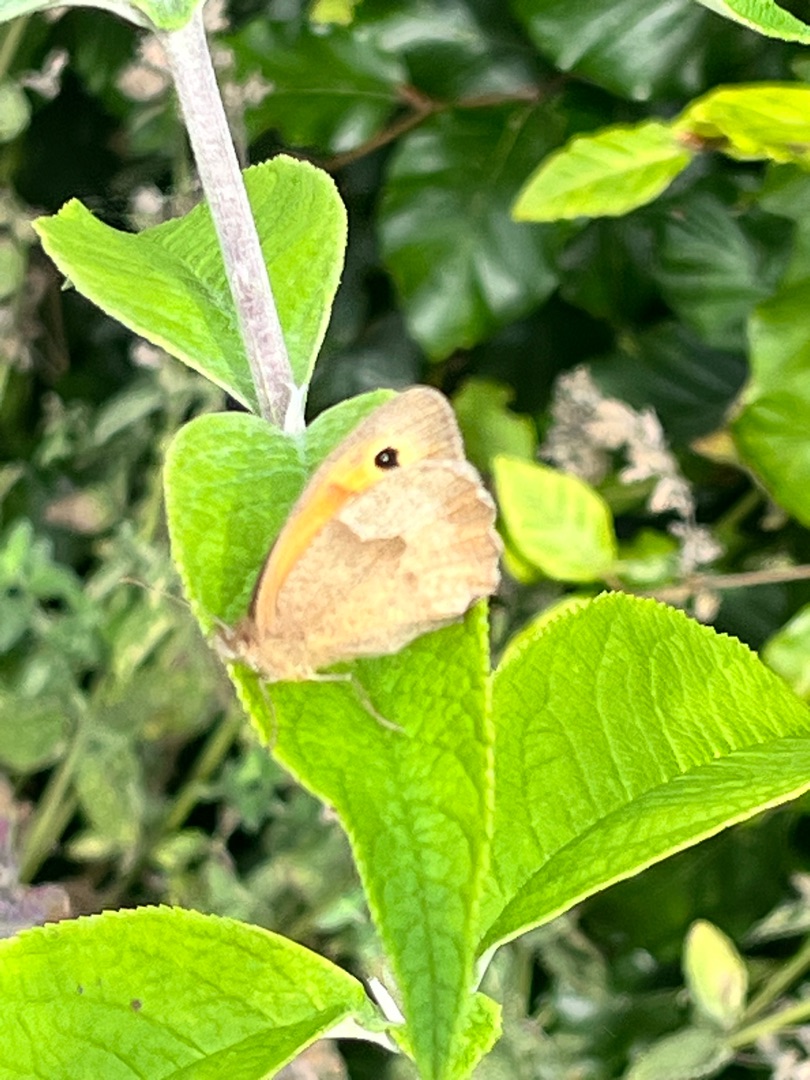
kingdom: Animalia
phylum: Arthropoda
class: Insecta
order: Lepidoptera
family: Nymphalidae
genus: Maniola
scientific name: Maniola jurtina
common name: Græsrandøje
